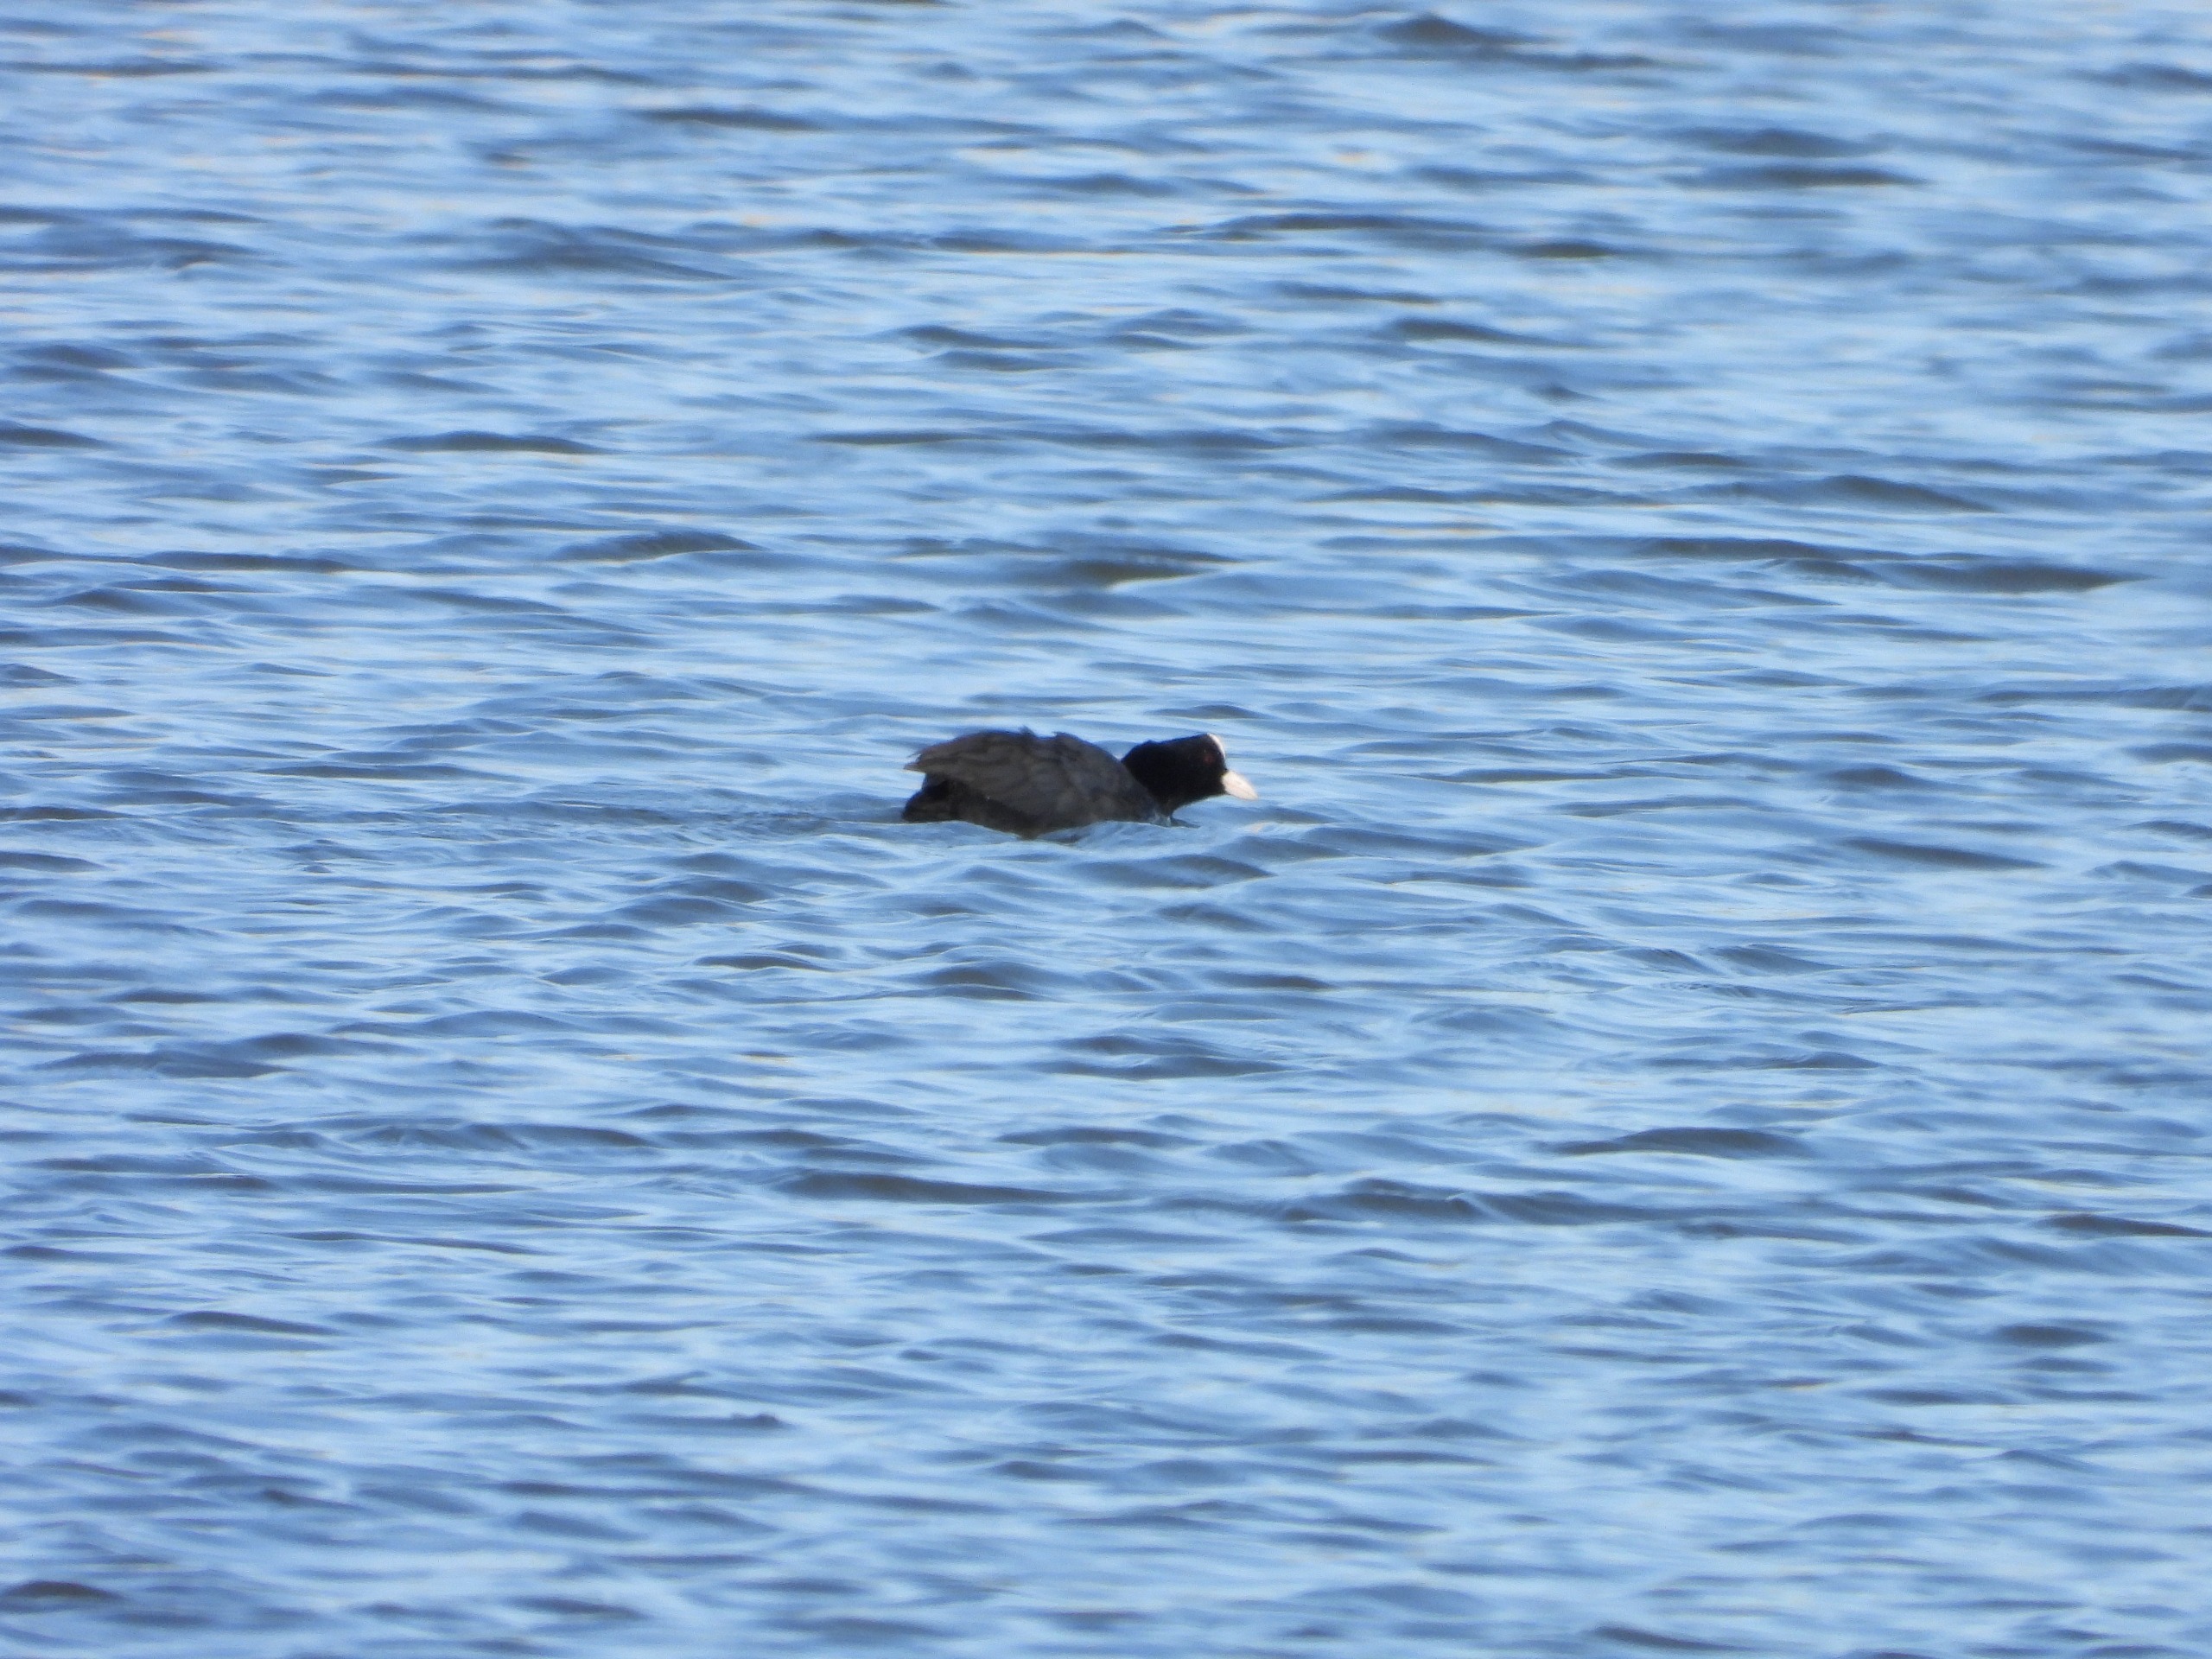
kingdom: Animalia
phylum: Chordata
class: Aves
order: Gruiformes
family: Rallidae
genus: Fulica
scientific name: Fulica atra
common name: Blishøne
